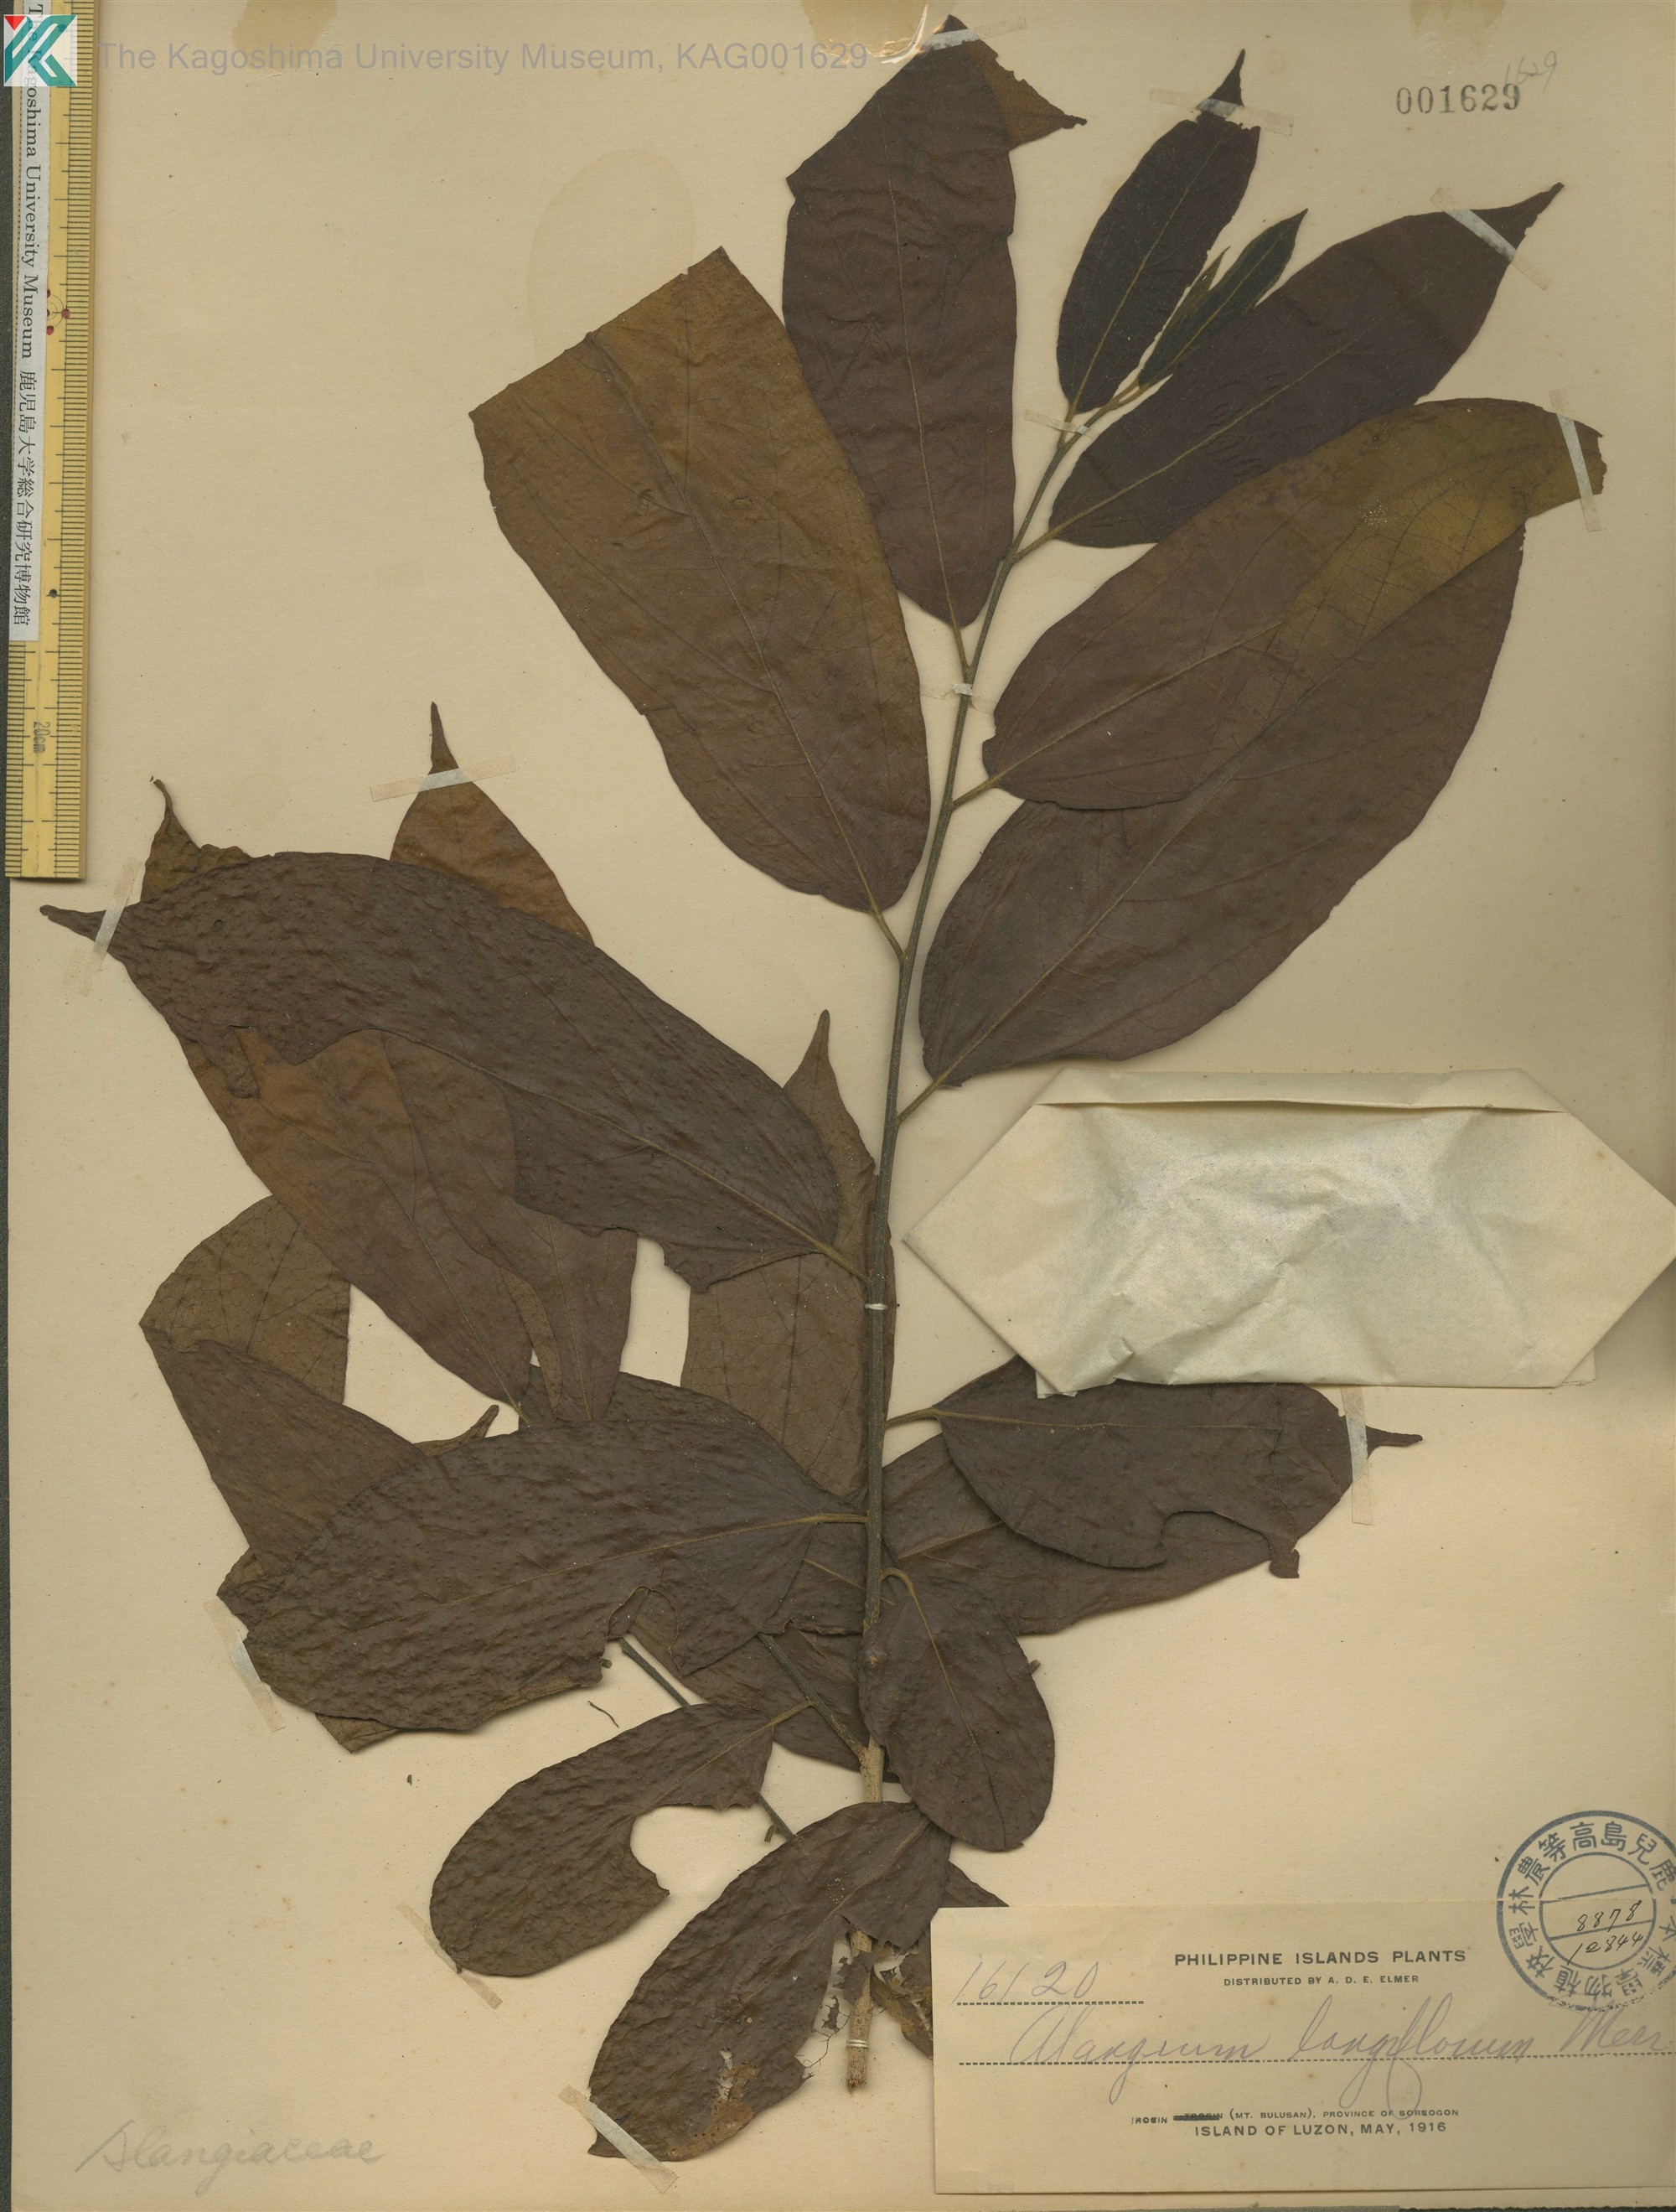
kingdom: Plantae
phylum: Tracheophyta
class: Magnoliopsida
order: Cornales
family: Cornaceae
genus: Alangium
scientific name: Alangium longiflorum
